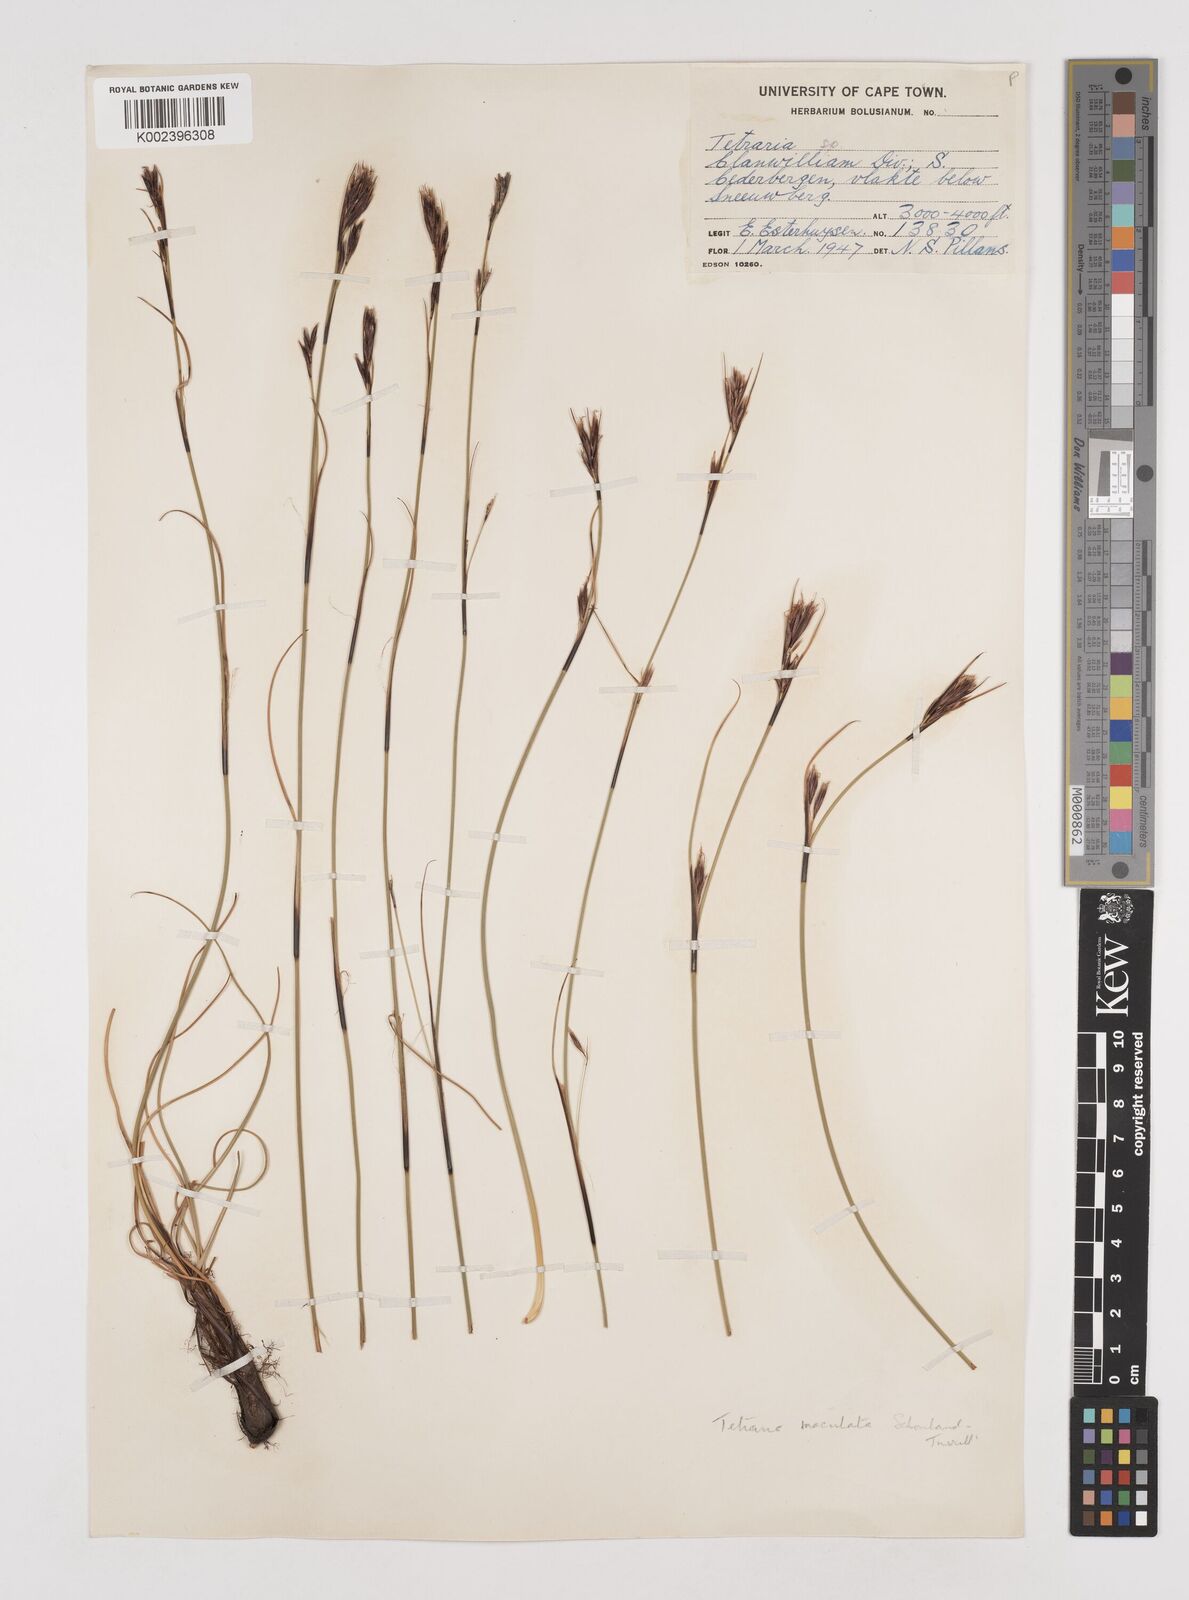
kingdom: Plantae
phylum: Tracheophyta
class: Liliopsida
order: Poales
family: Cyperaceae
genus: Tetraria
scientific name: Tetraria maculata
